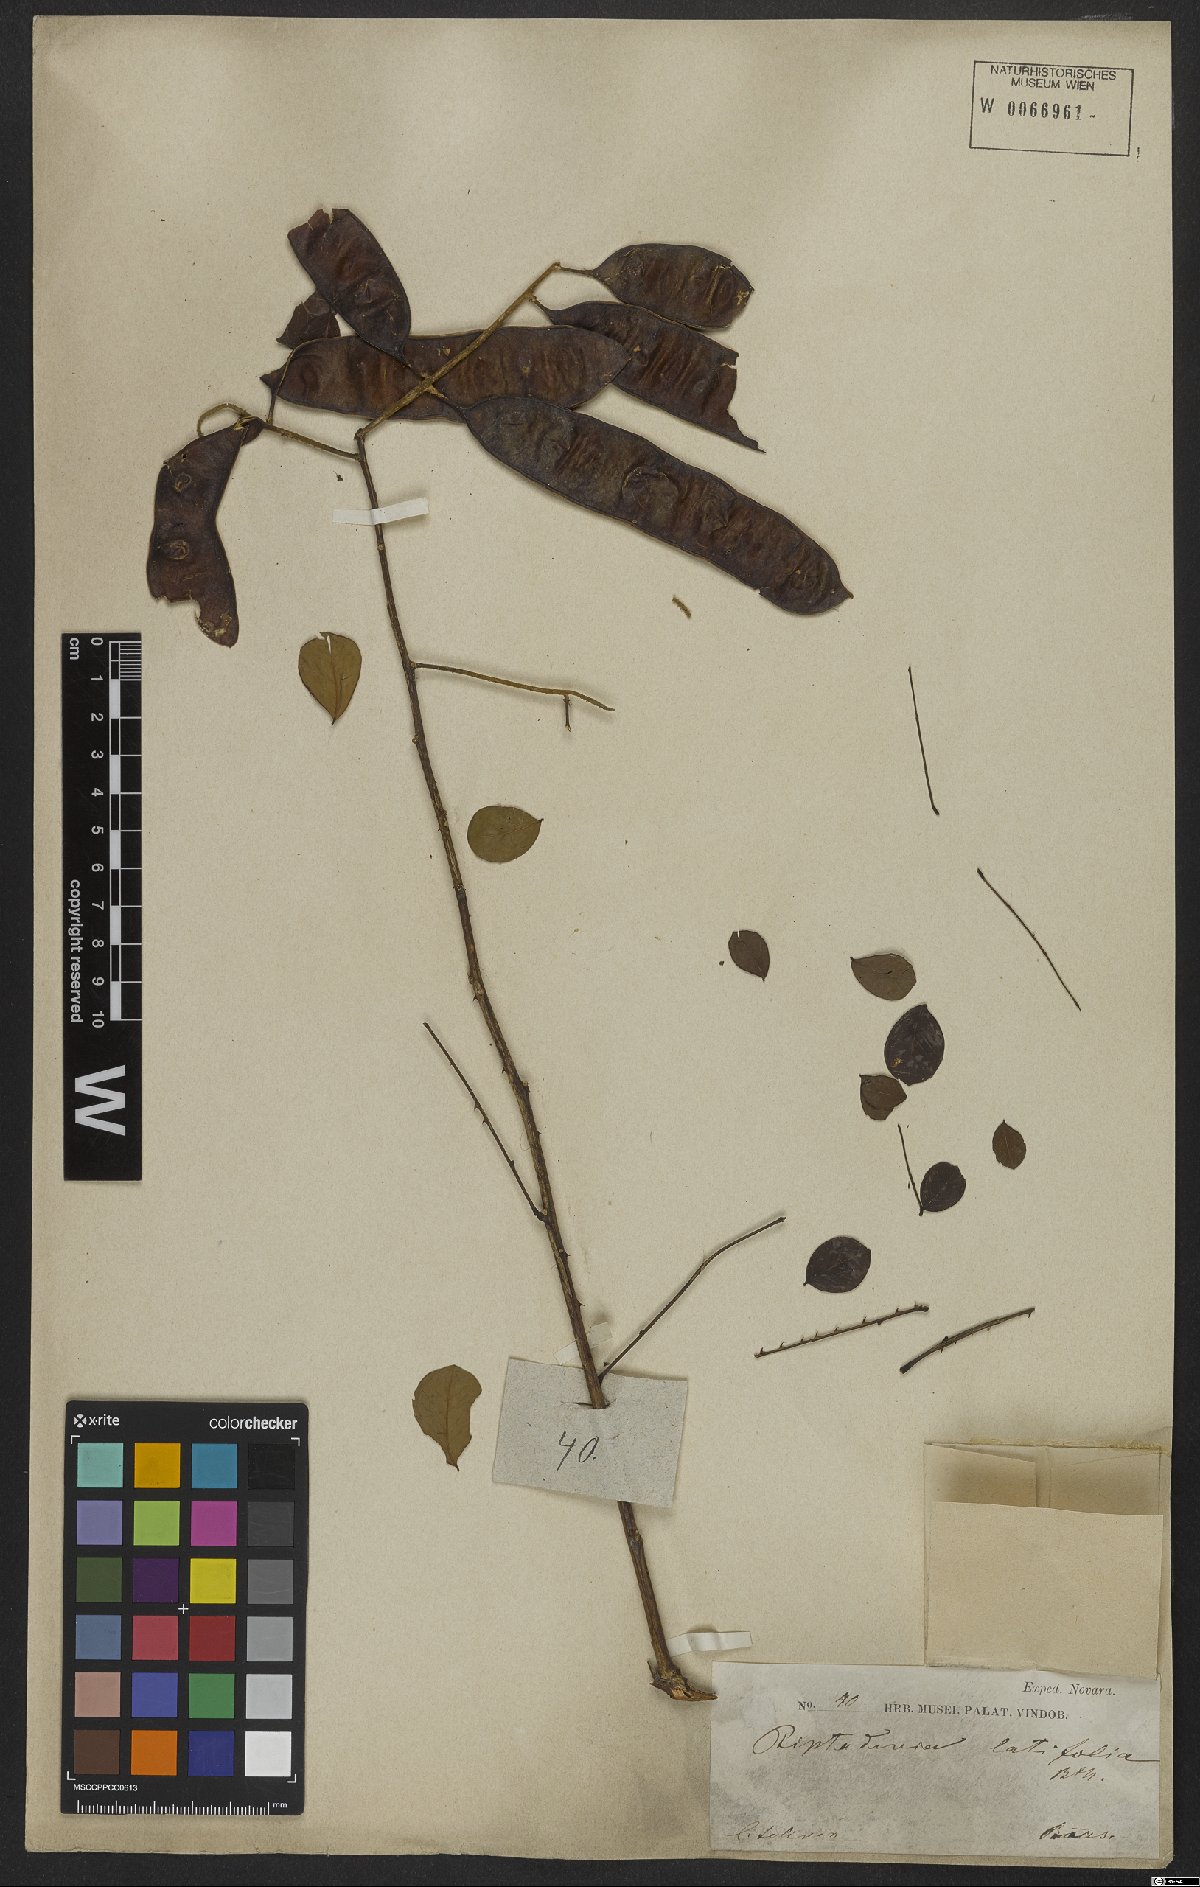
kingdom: Plantae
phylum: Tracheophyta
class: Magnoliopsida
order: Fabales
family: Fabaceae
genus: Piptadenia
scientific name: Piptadenia adiantoides
